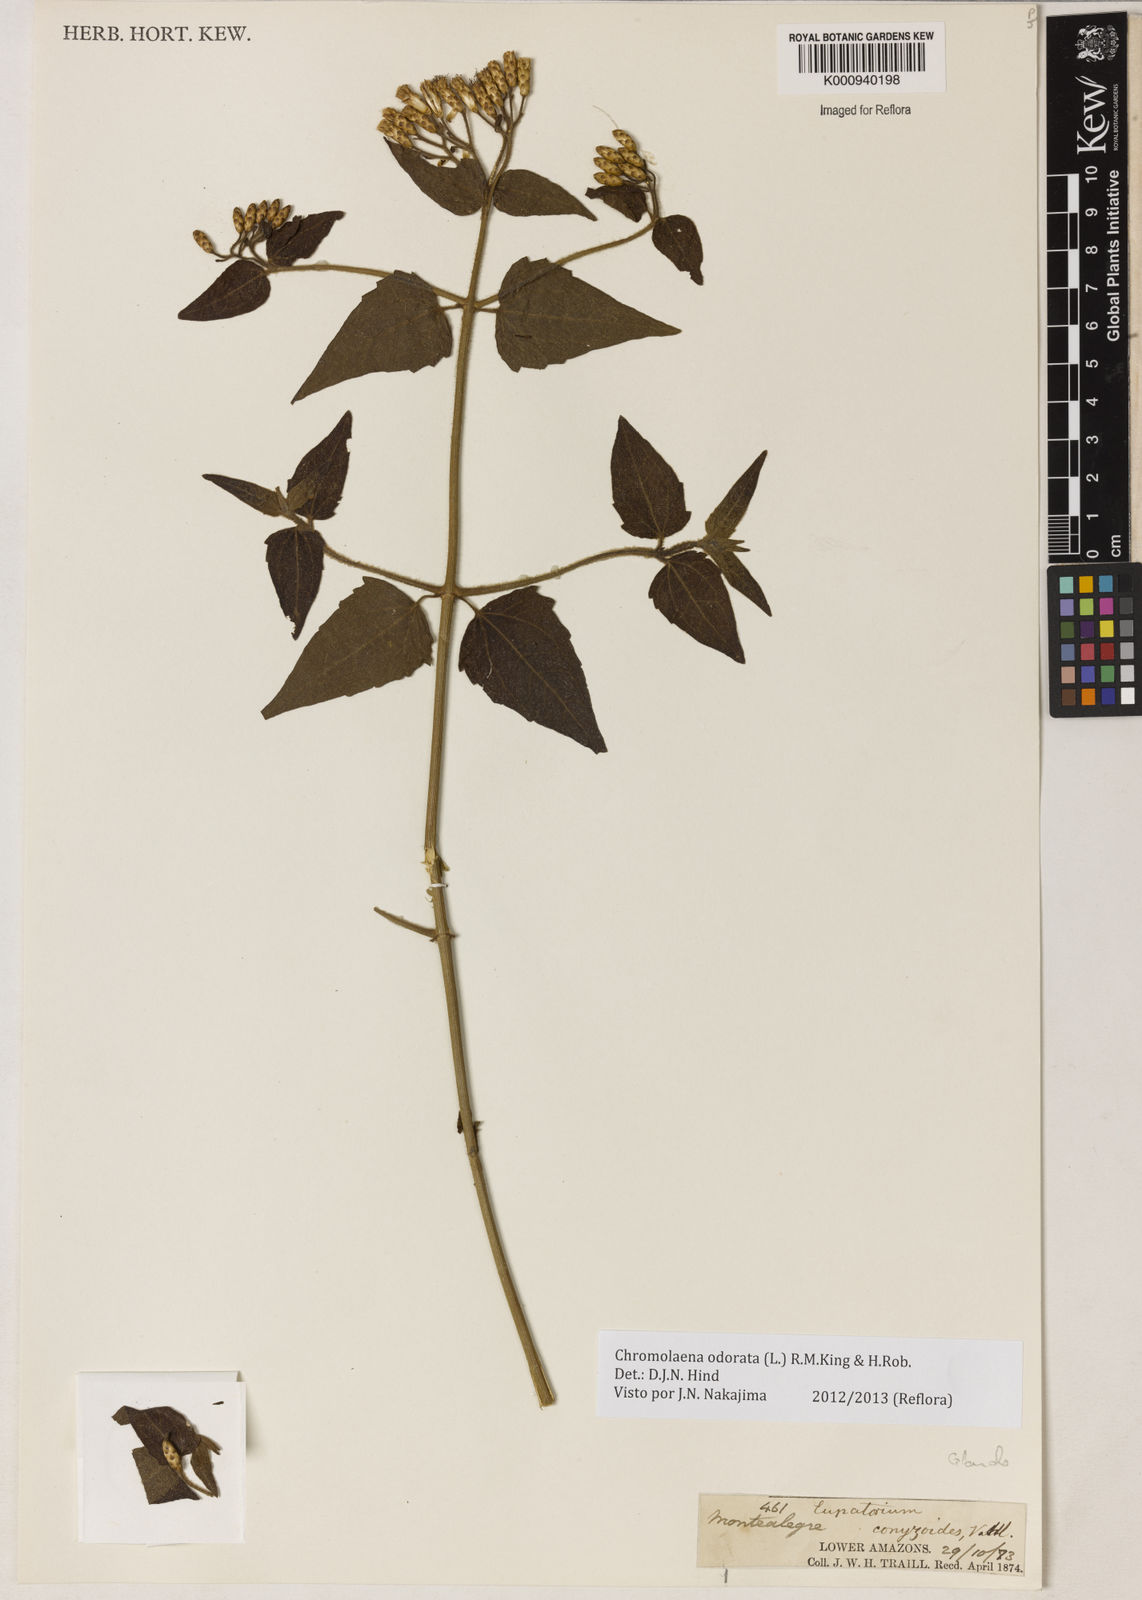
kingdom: Plantae
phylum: Tracheophyta
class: Magnoliopsida
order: Asterales
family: Asteraceae
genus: Chromolaena
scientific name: Chromolaena odorata
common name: Siamweed
